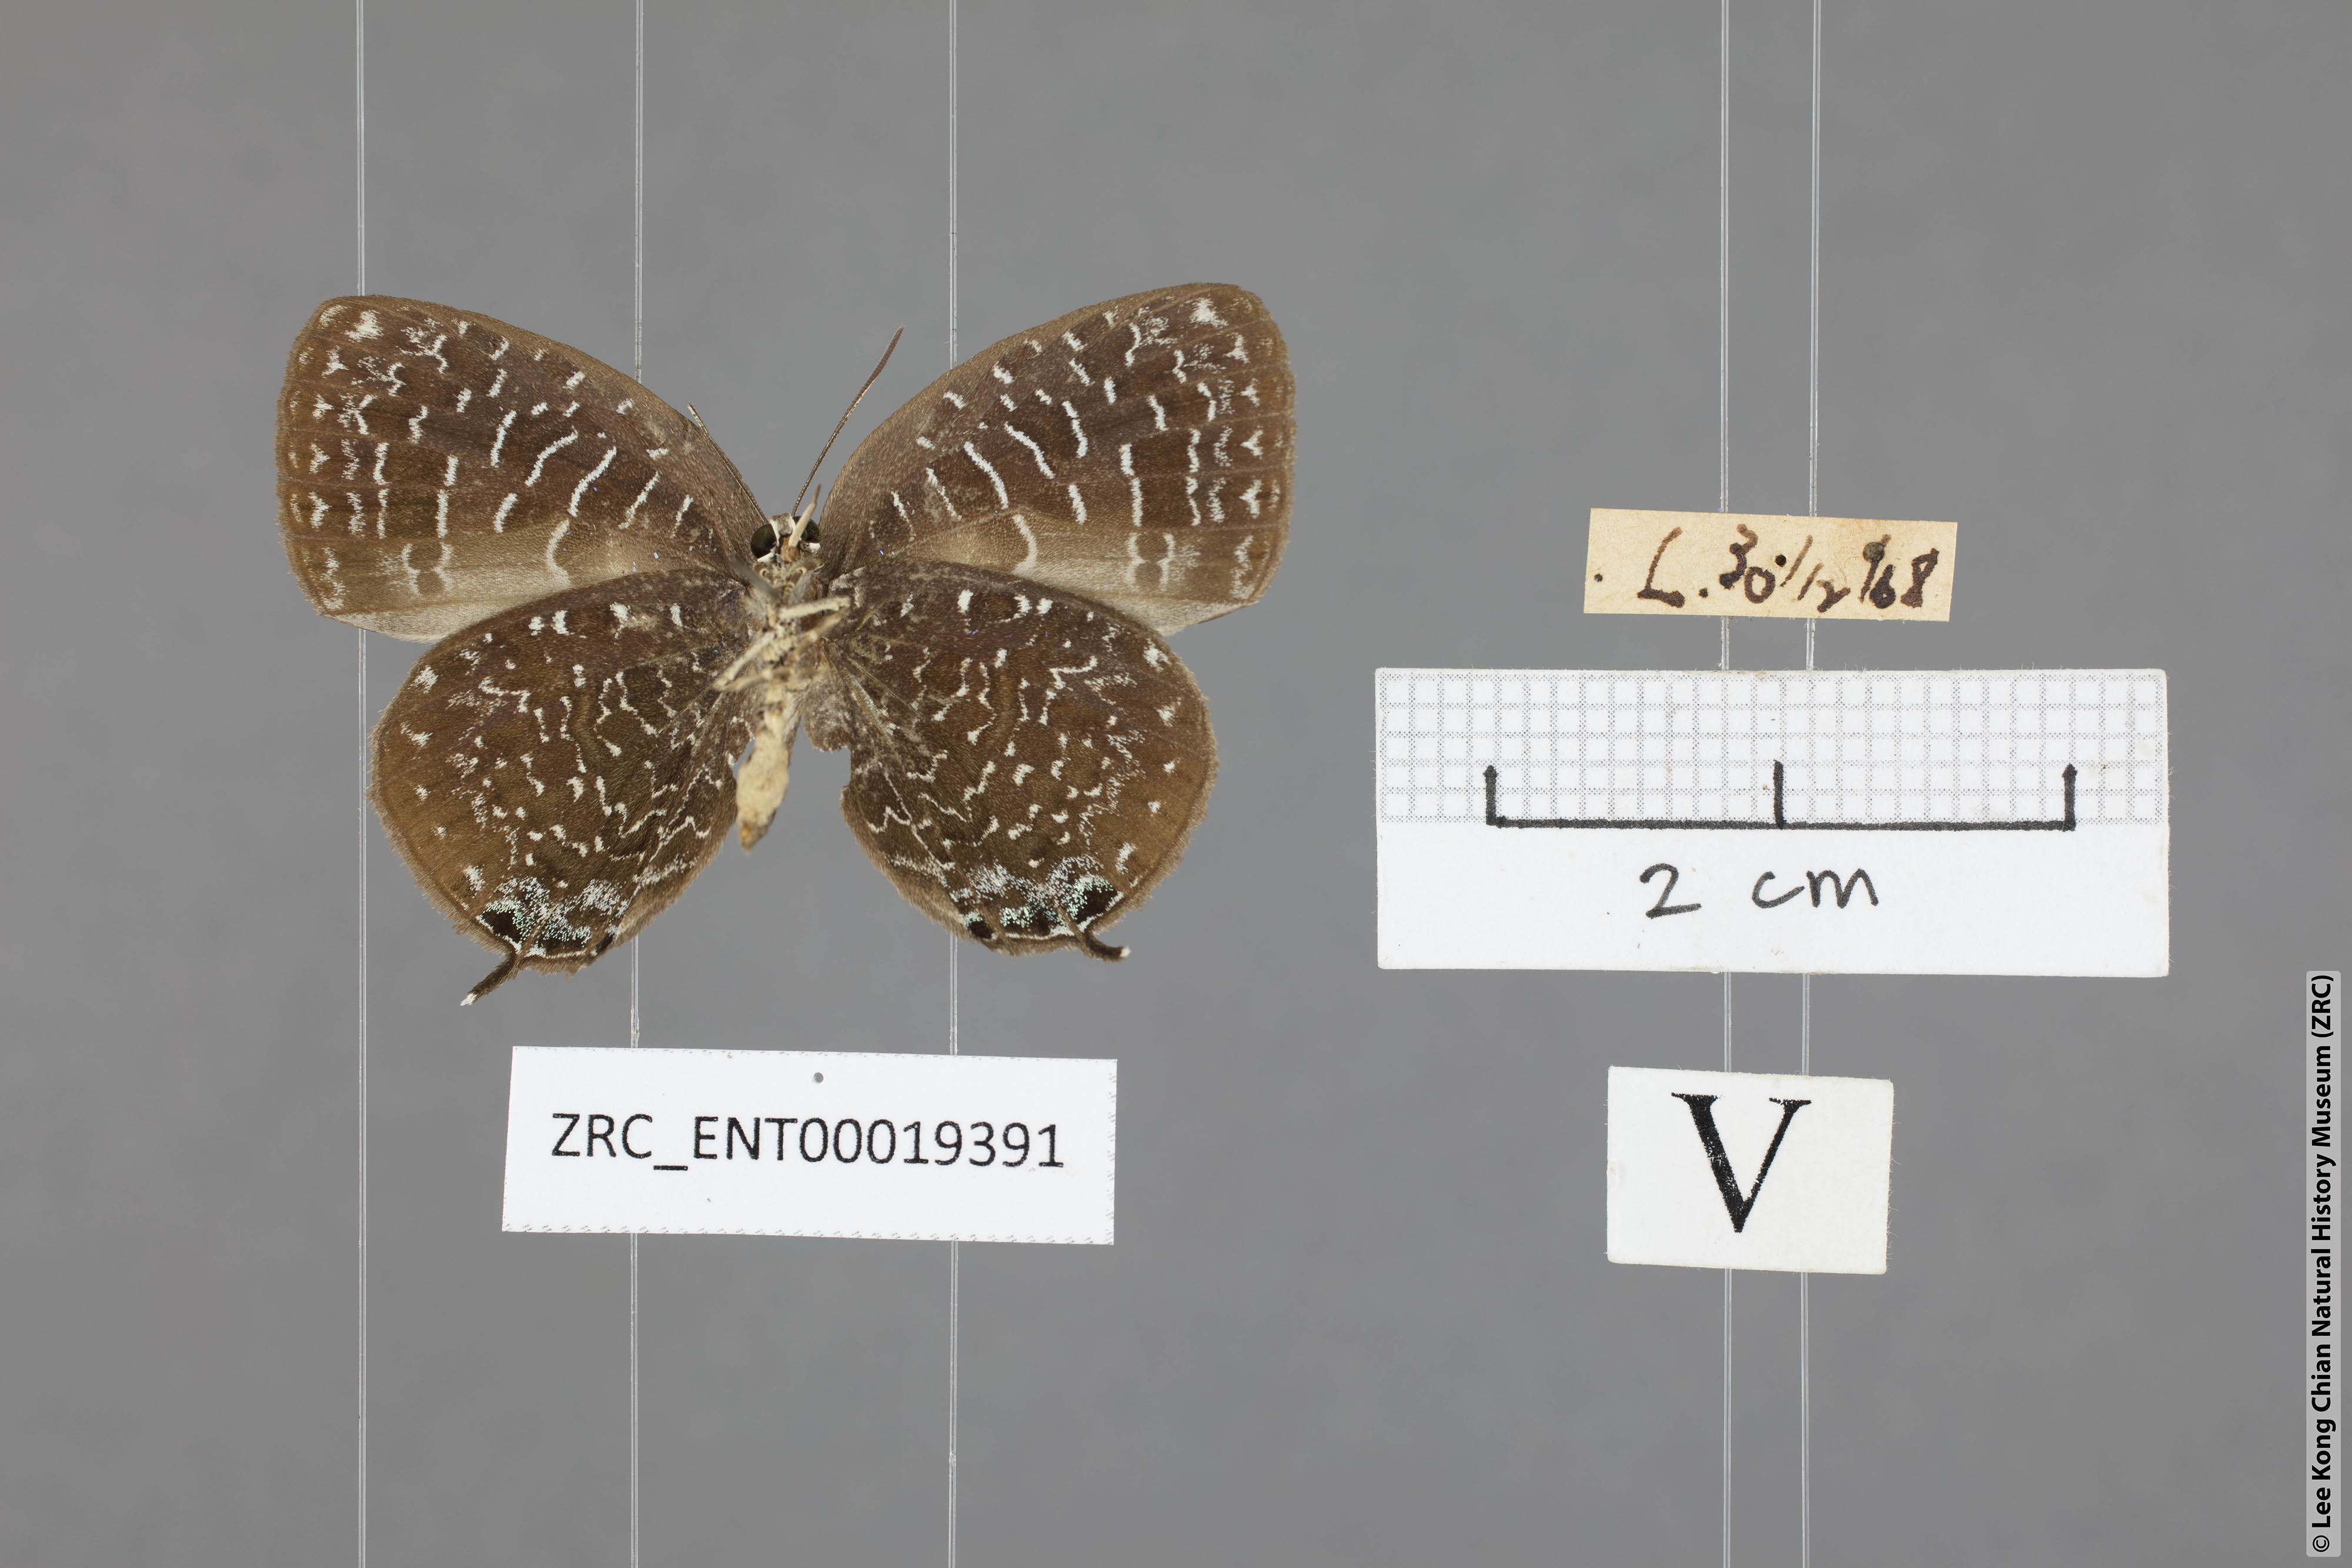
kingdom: Animalia
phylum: Arthropoda
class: Insecta
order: Lepidoptera
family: Lycaenidae
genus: Arhopala
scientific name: Arhopala democritus
